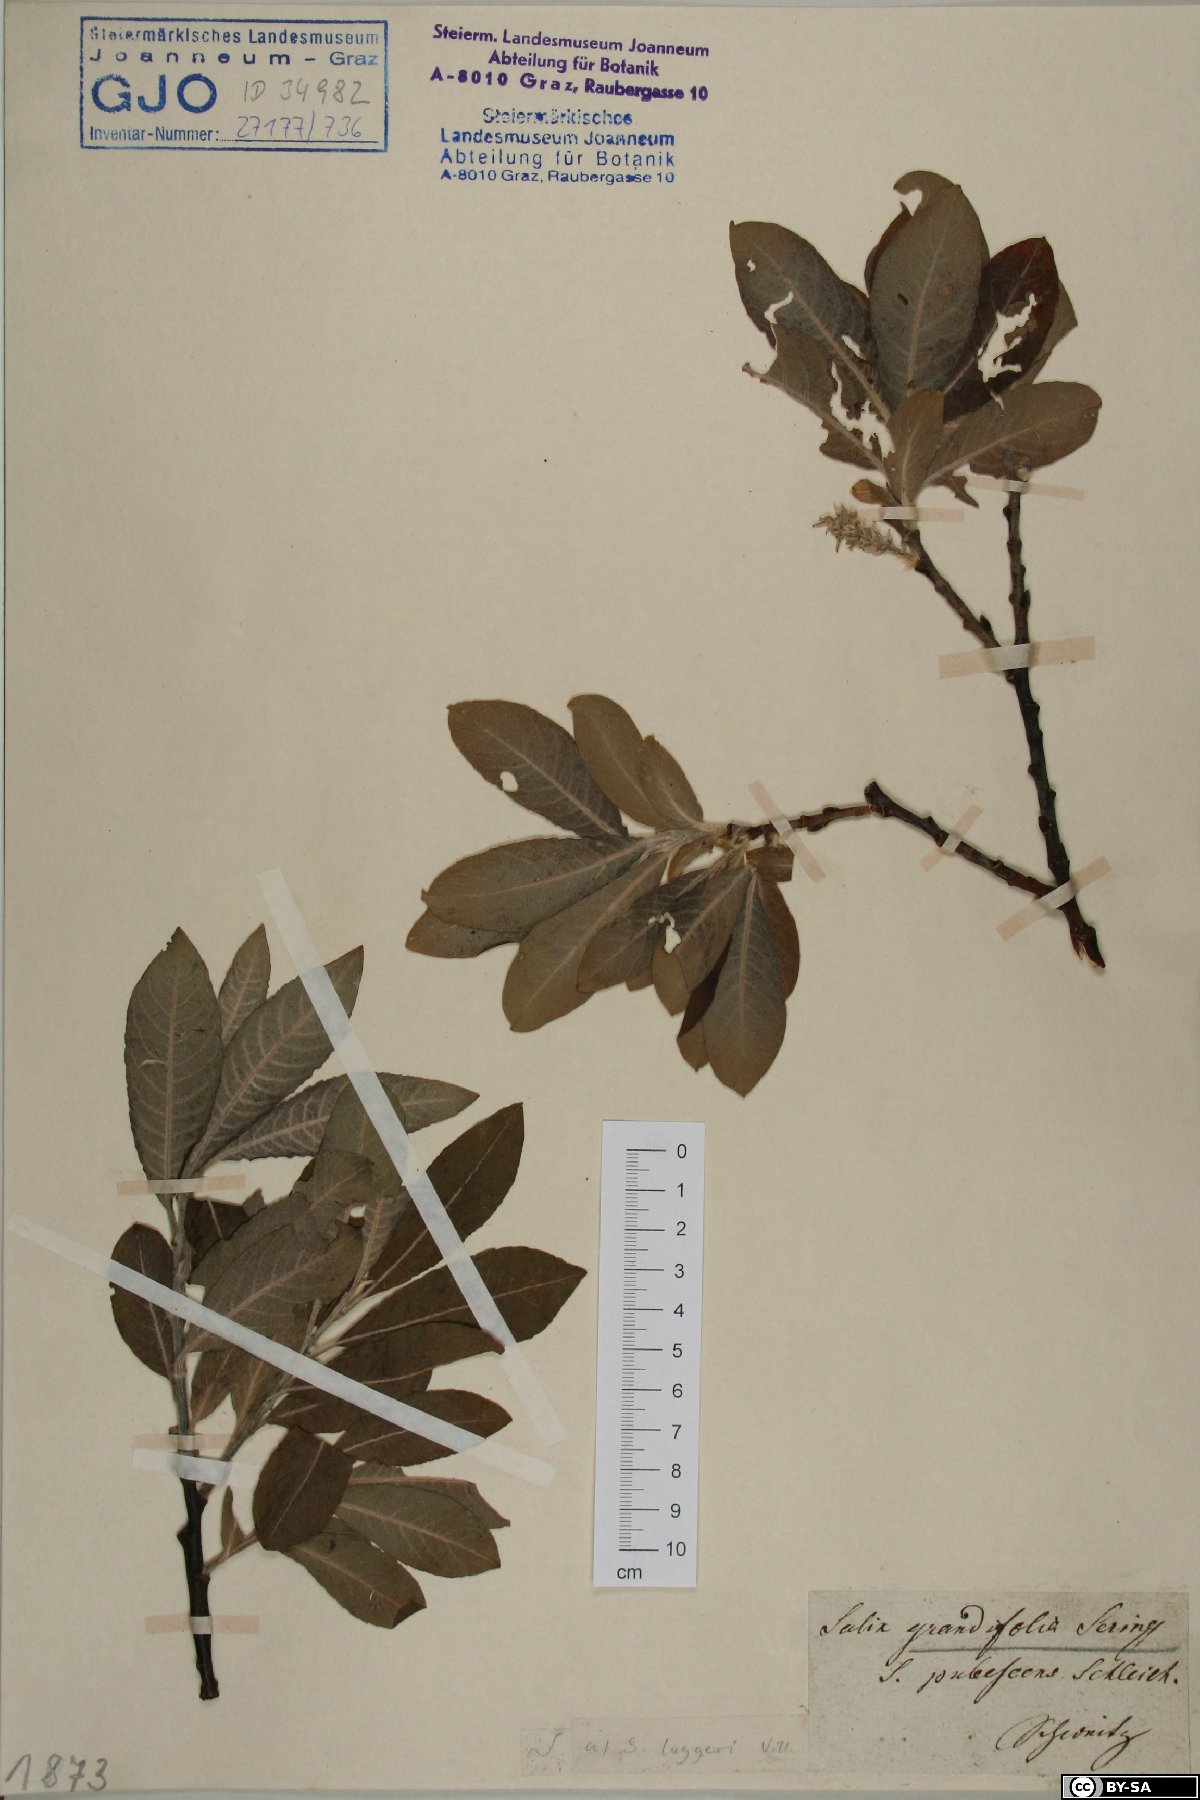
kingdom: Plantae
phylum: Tracheophyta
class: Magnoliopsida
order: Malpighiales
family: Salicaceae
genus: Salix
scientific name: Salix laggeri
